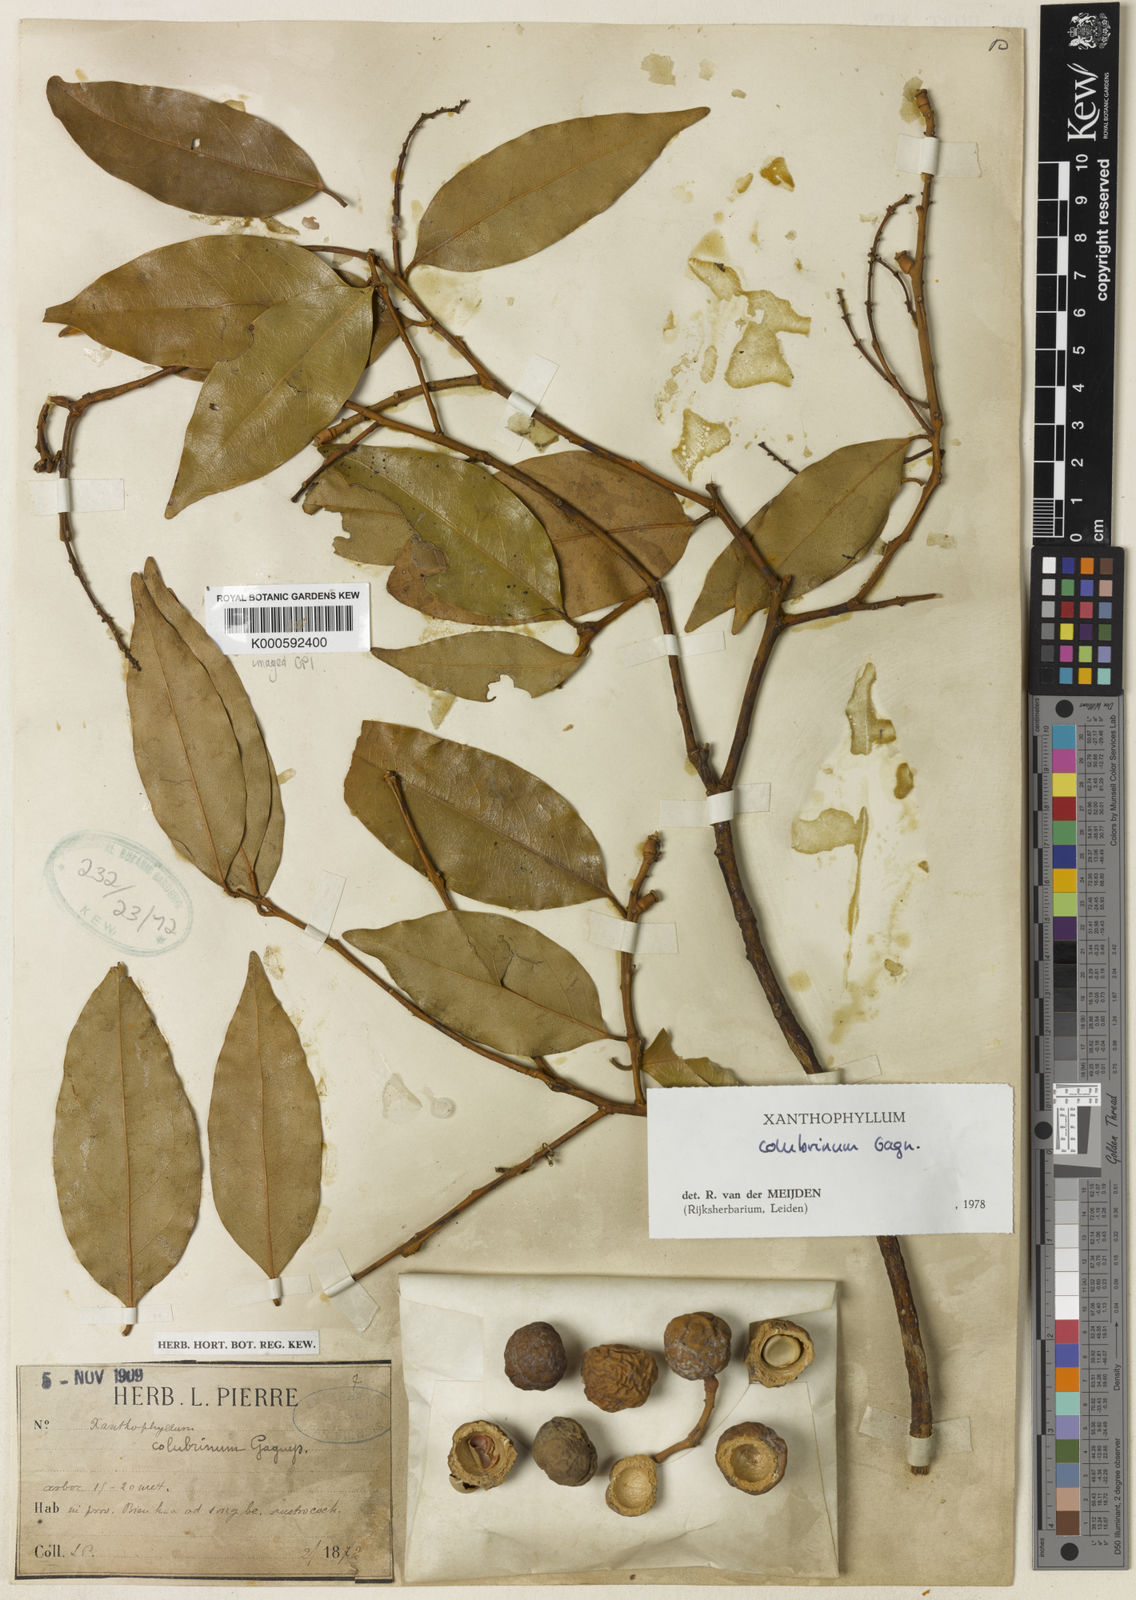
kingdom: Plantae
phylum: Tracheophyta
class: Magnoliopsida
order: Fabales
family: Polygalaceae
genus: Xanthophyllum
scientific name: Xanthophyllum colubrinum
